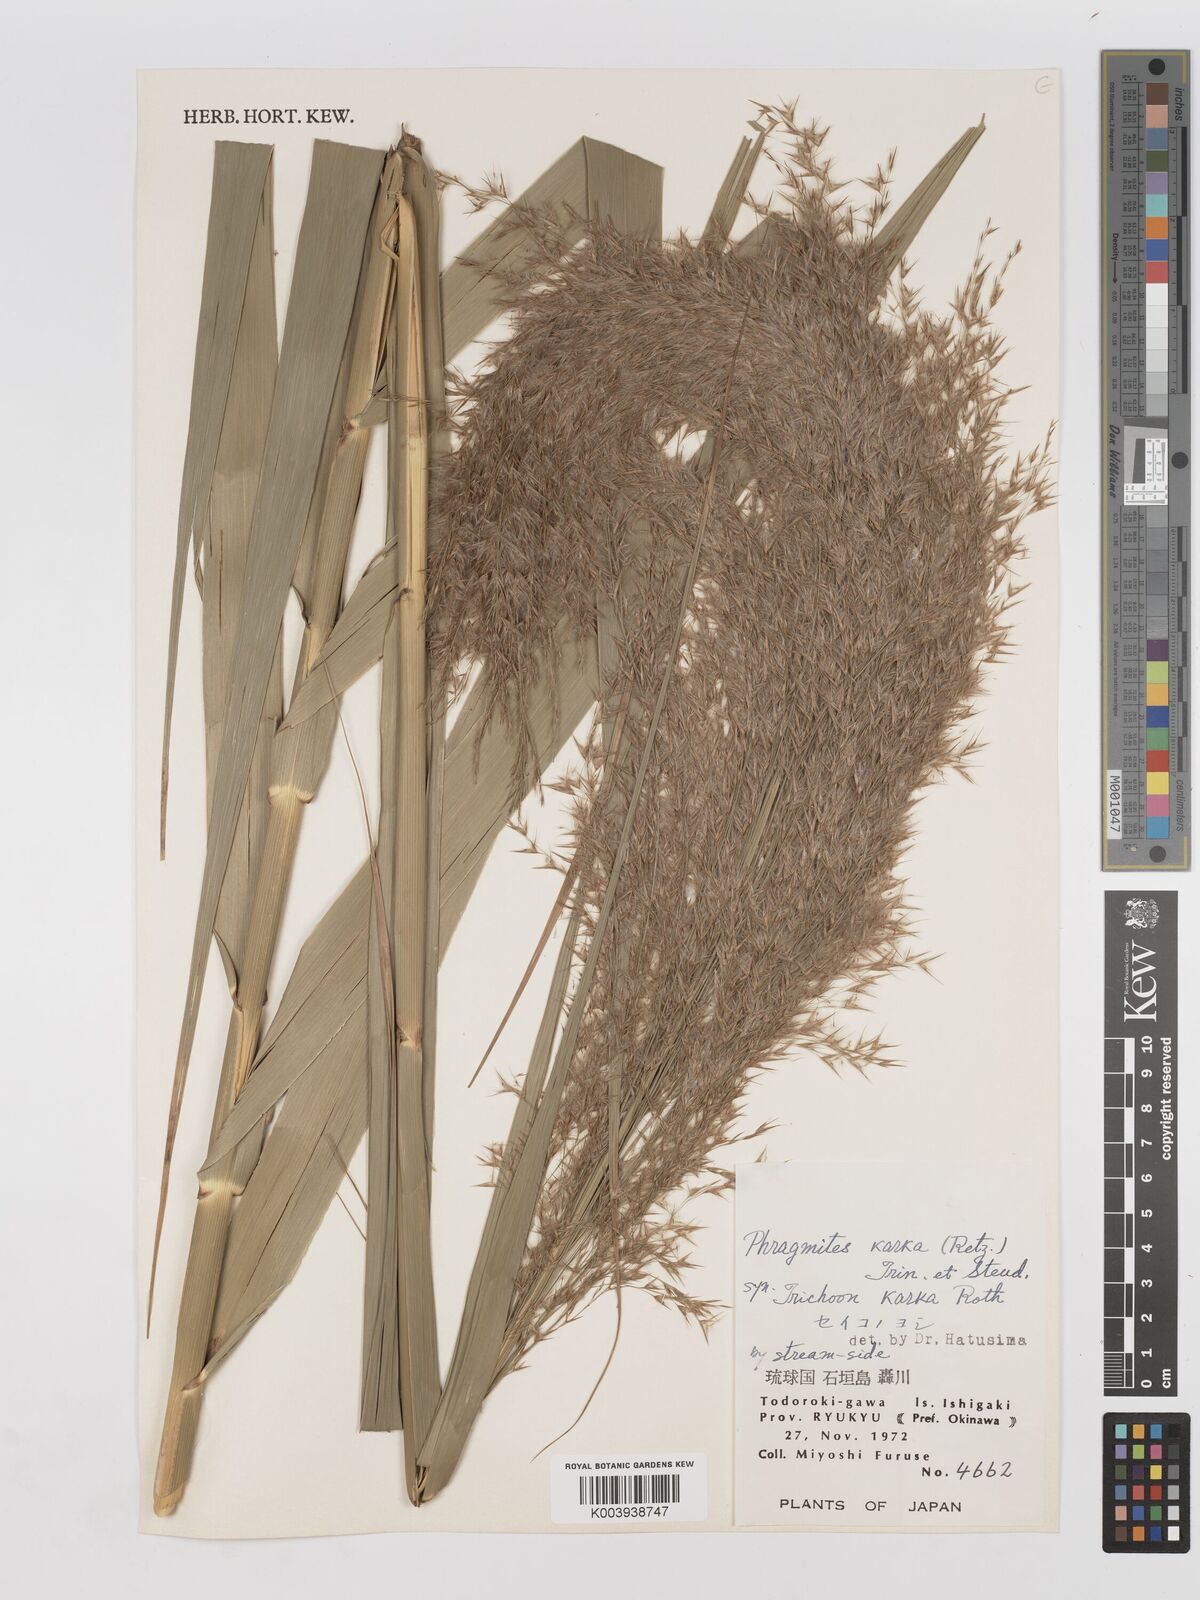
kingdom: Plantae
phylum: Tracheophyta
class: Liliopsida
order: Poales
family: Poaceae
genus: Phragmites
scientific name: Phragmites karka
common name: Tropical reed
